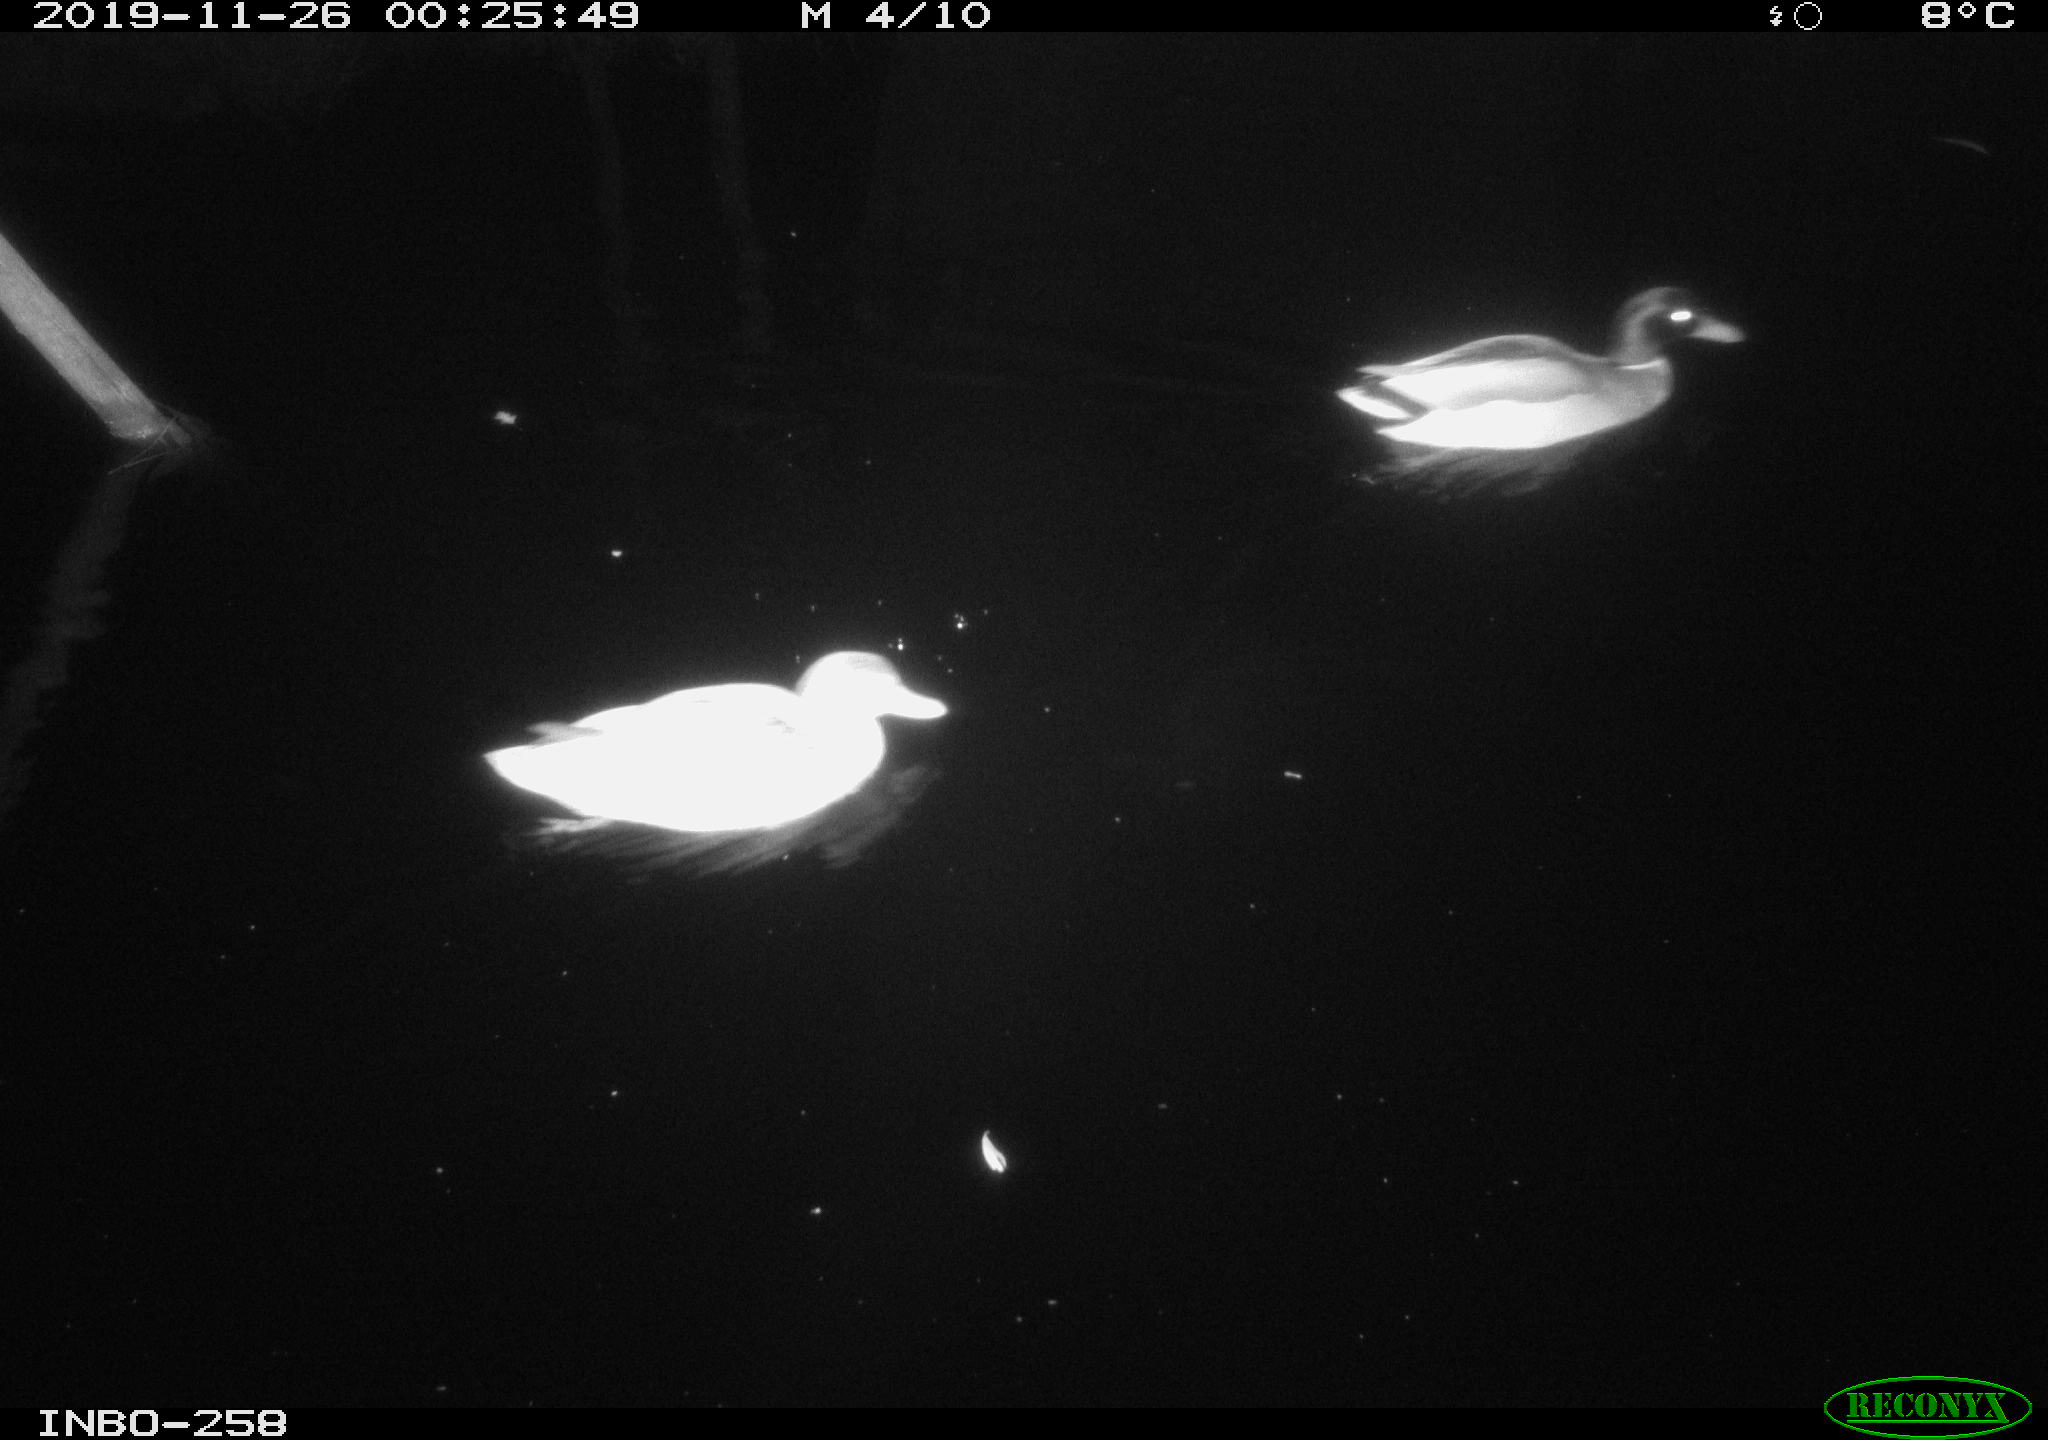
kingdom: Animalia
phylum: Chordata
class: Aves
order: Anseriformes
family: Anatidae
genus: Anas
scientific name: Anas platyrhynchos
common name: Mallard
